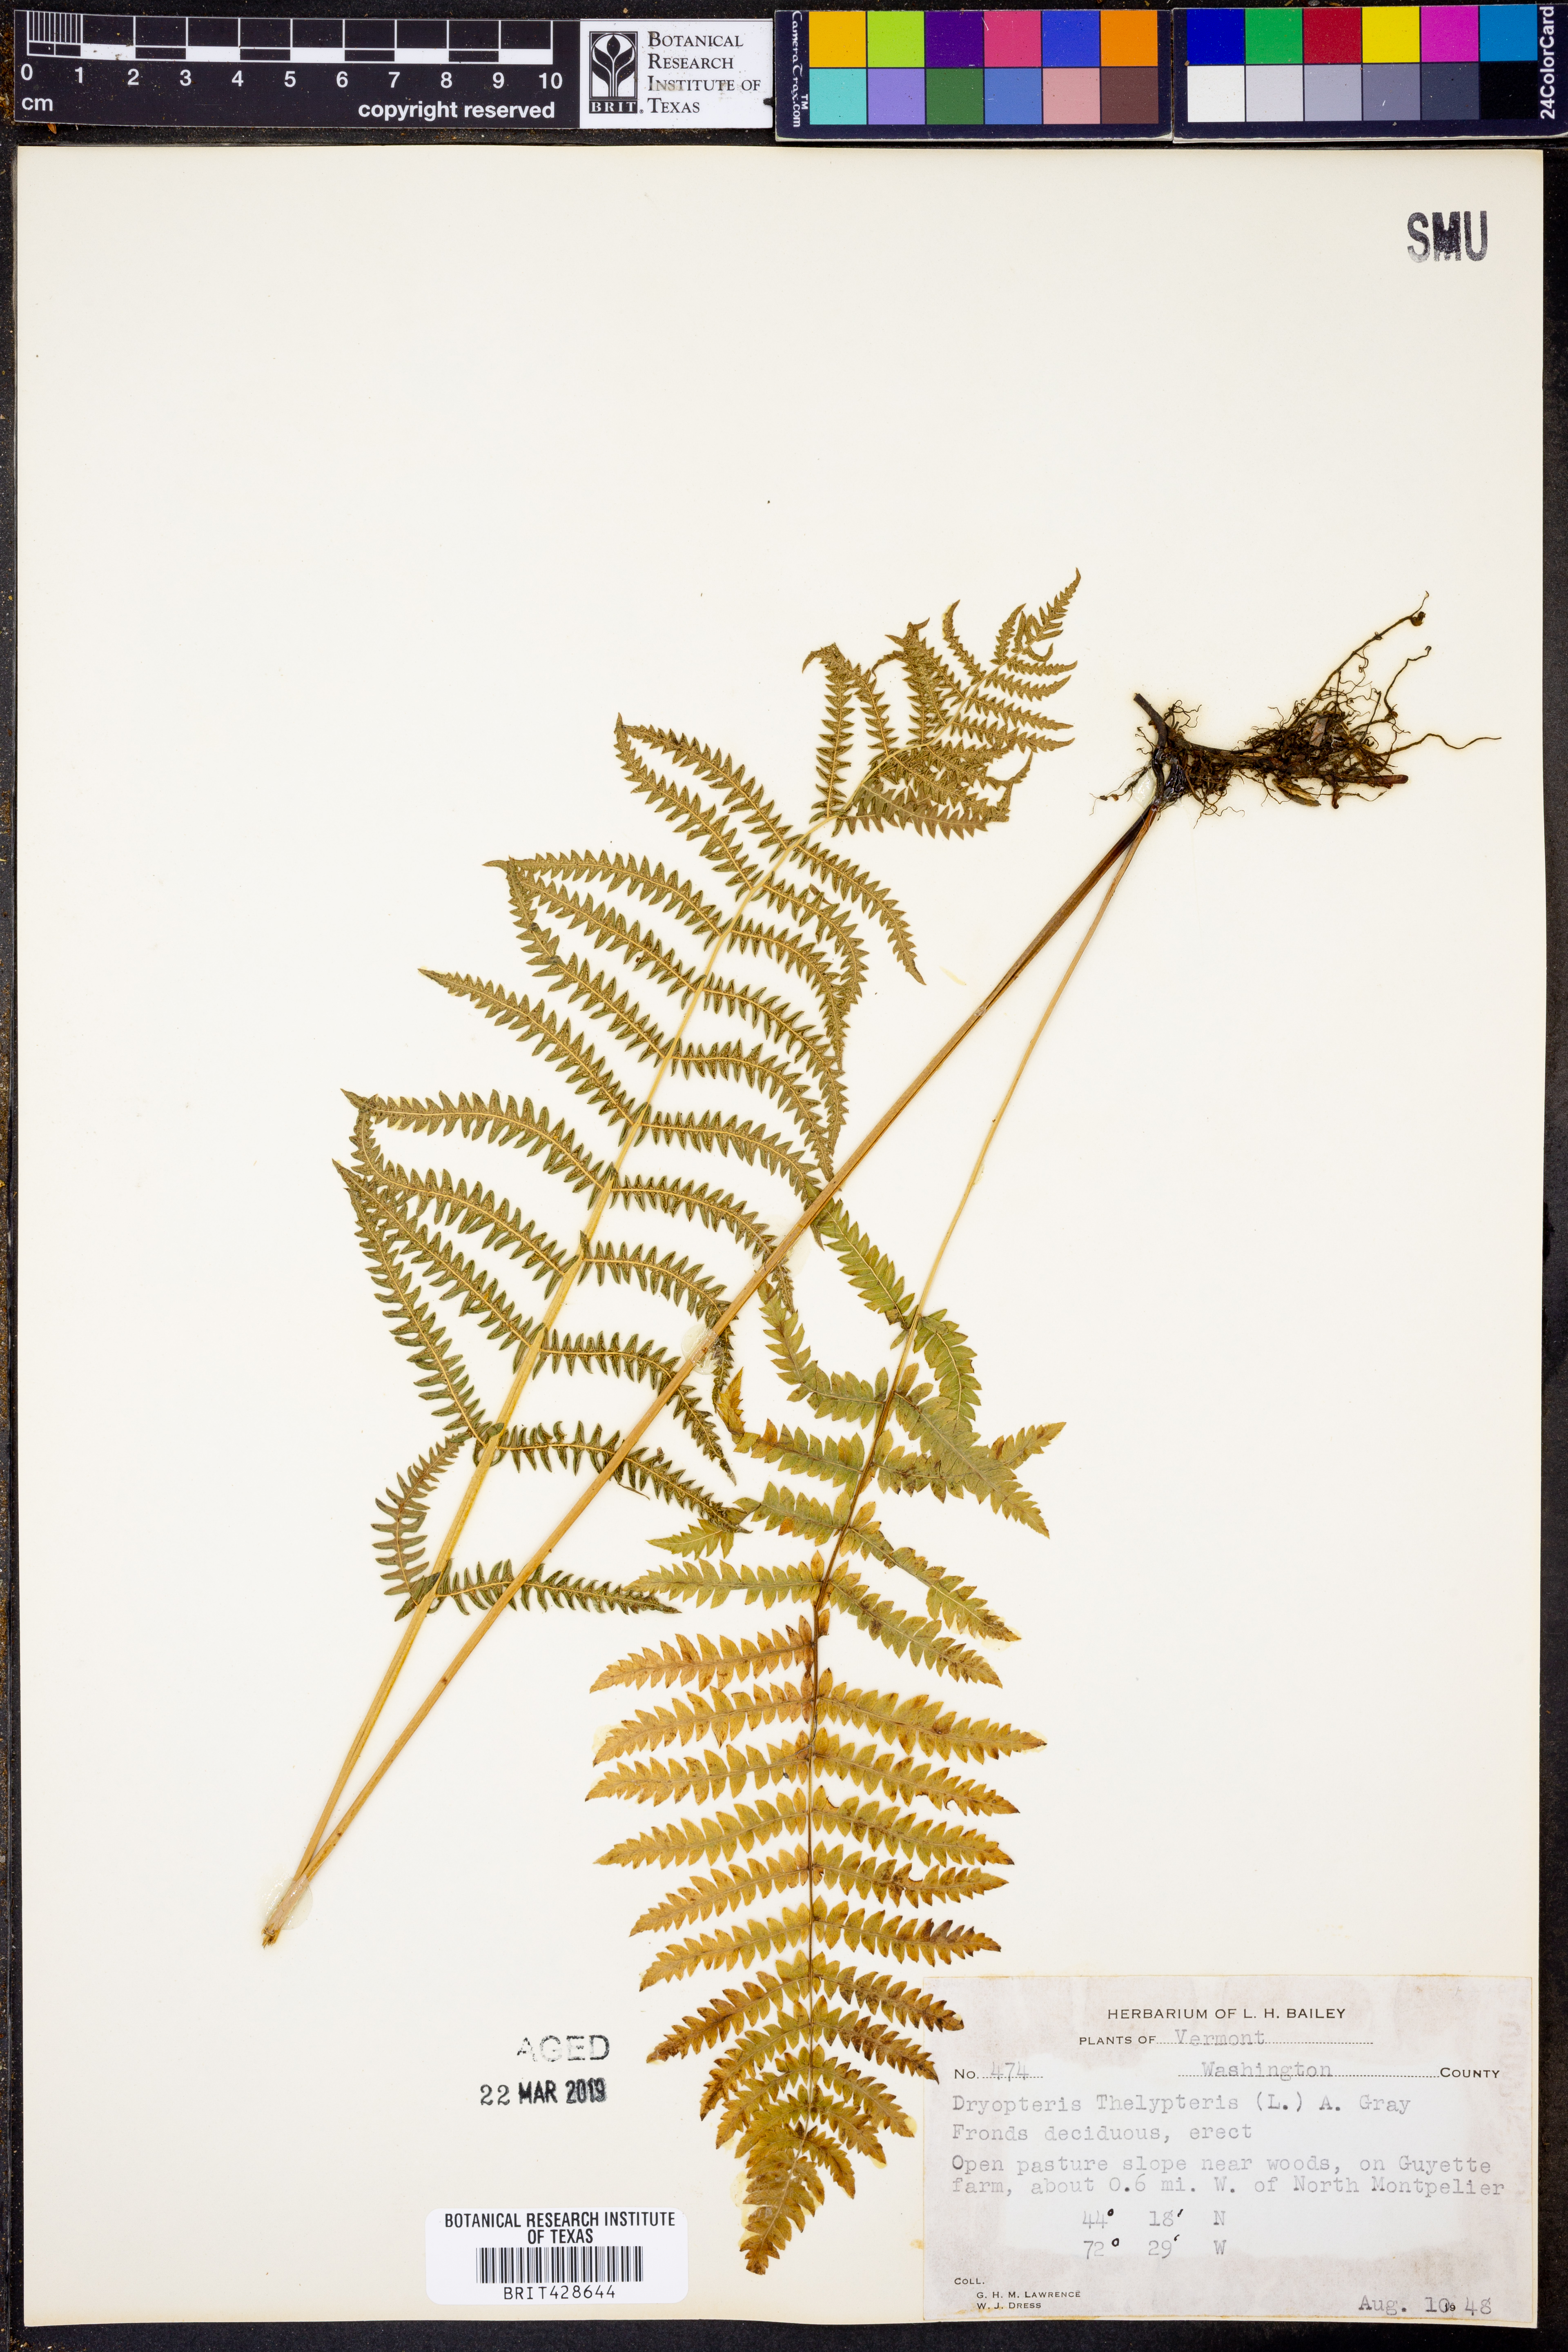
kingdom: Plantae
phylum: Tracheophyta
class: Polypodiopsida
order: Polypodiales
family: Thelypteridaceae
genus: Thelypteris
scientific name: Thelypteris palustris
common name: Marsh fern
